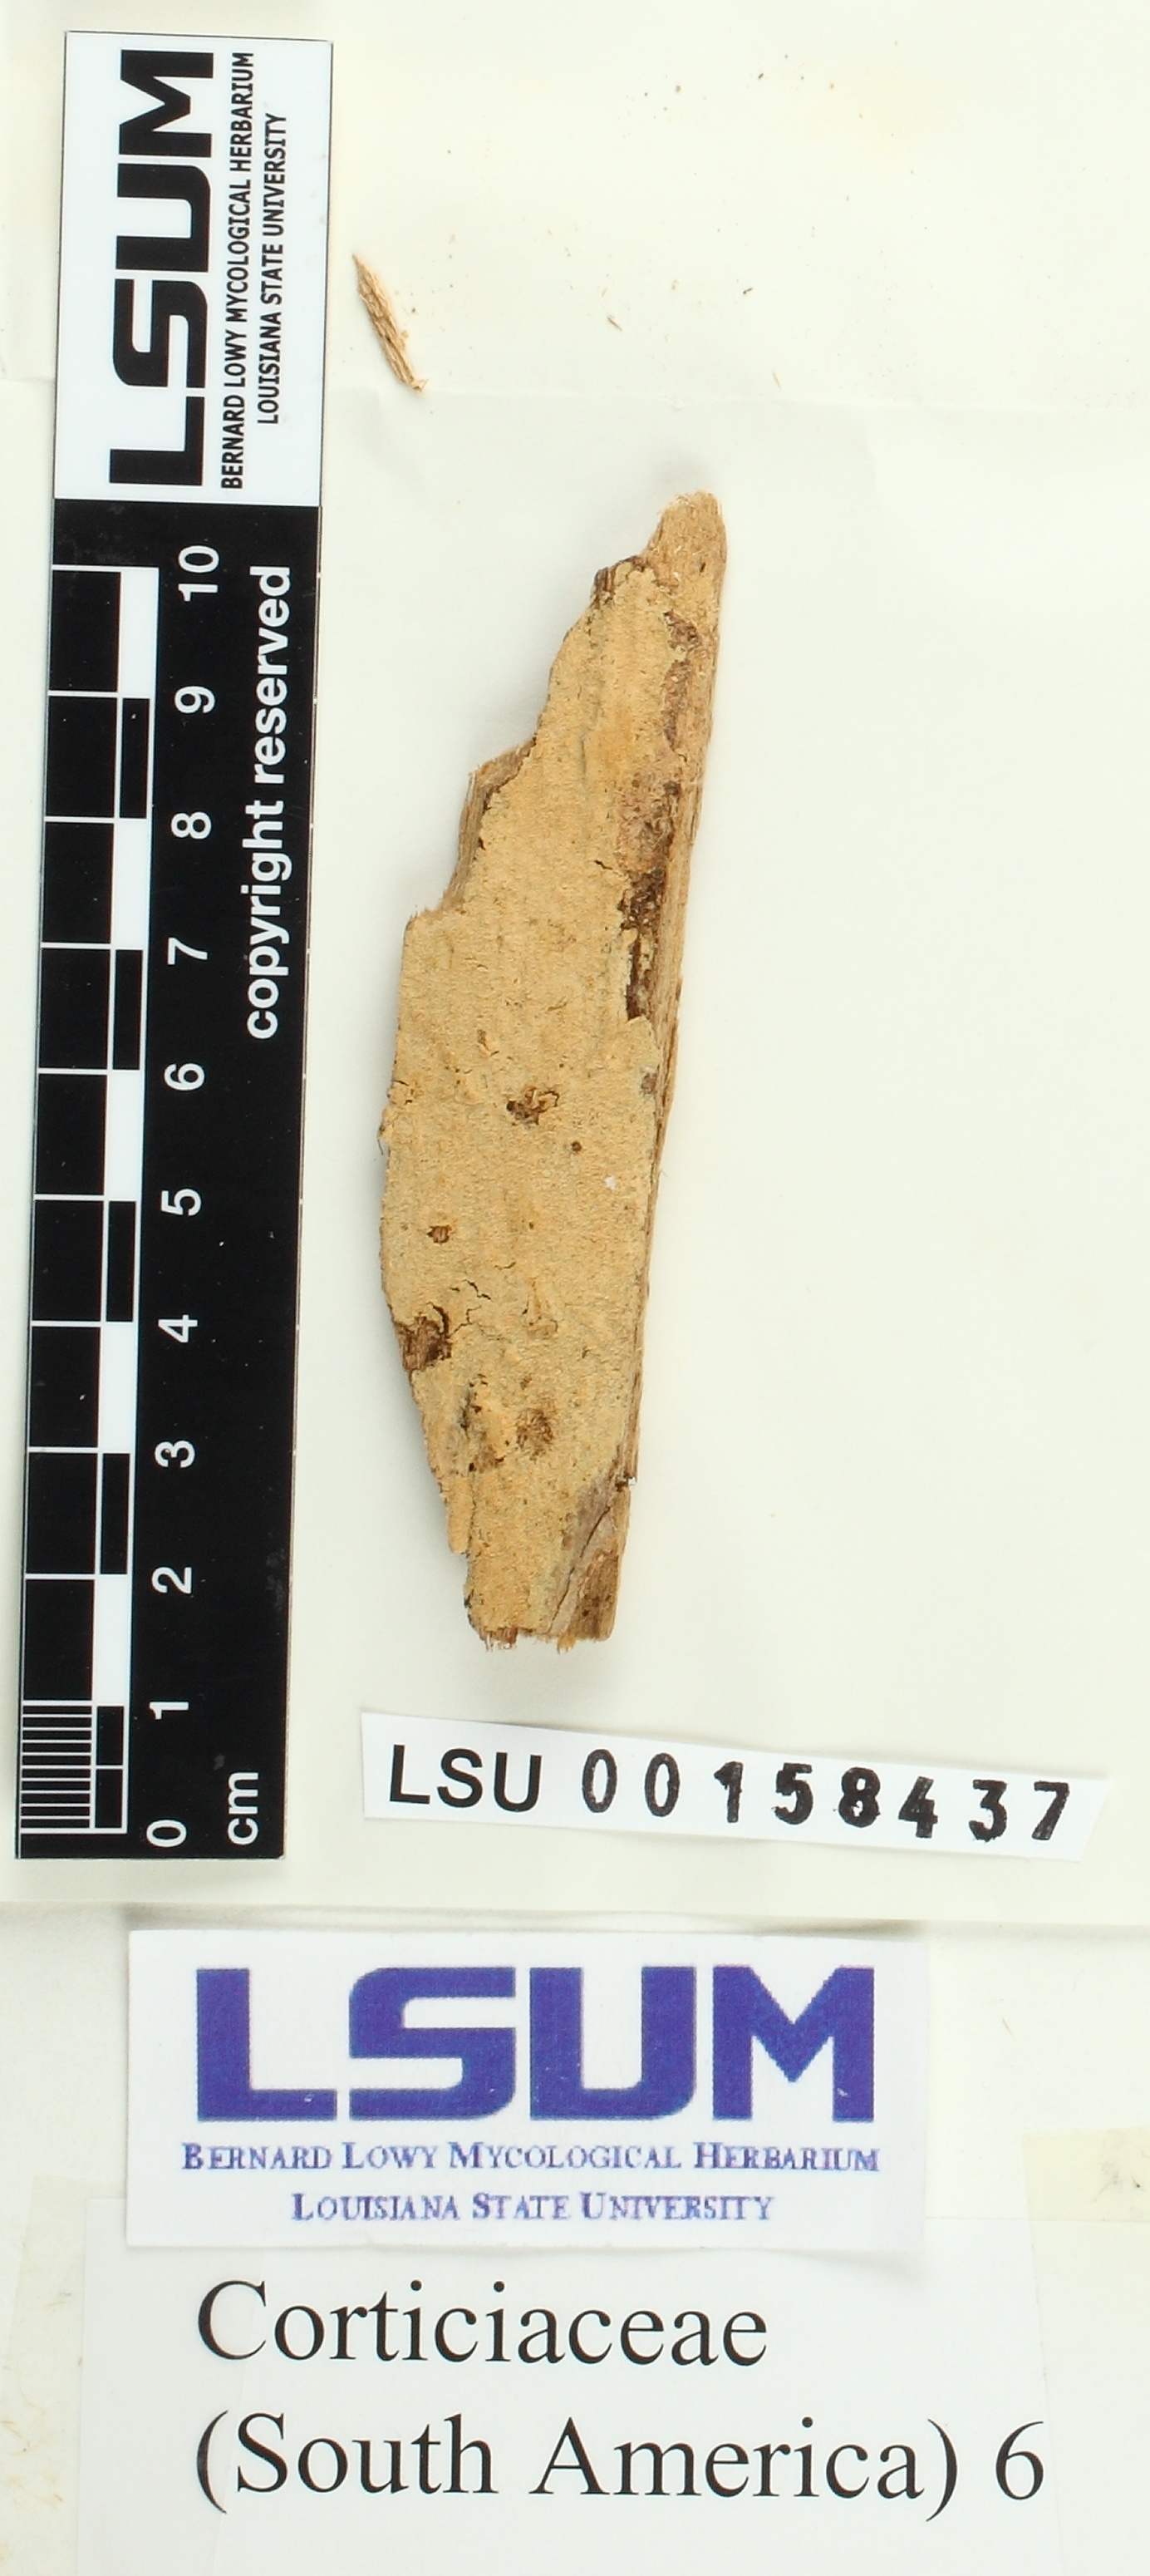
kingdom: Fungi
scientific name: Fungi
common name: Fungi
